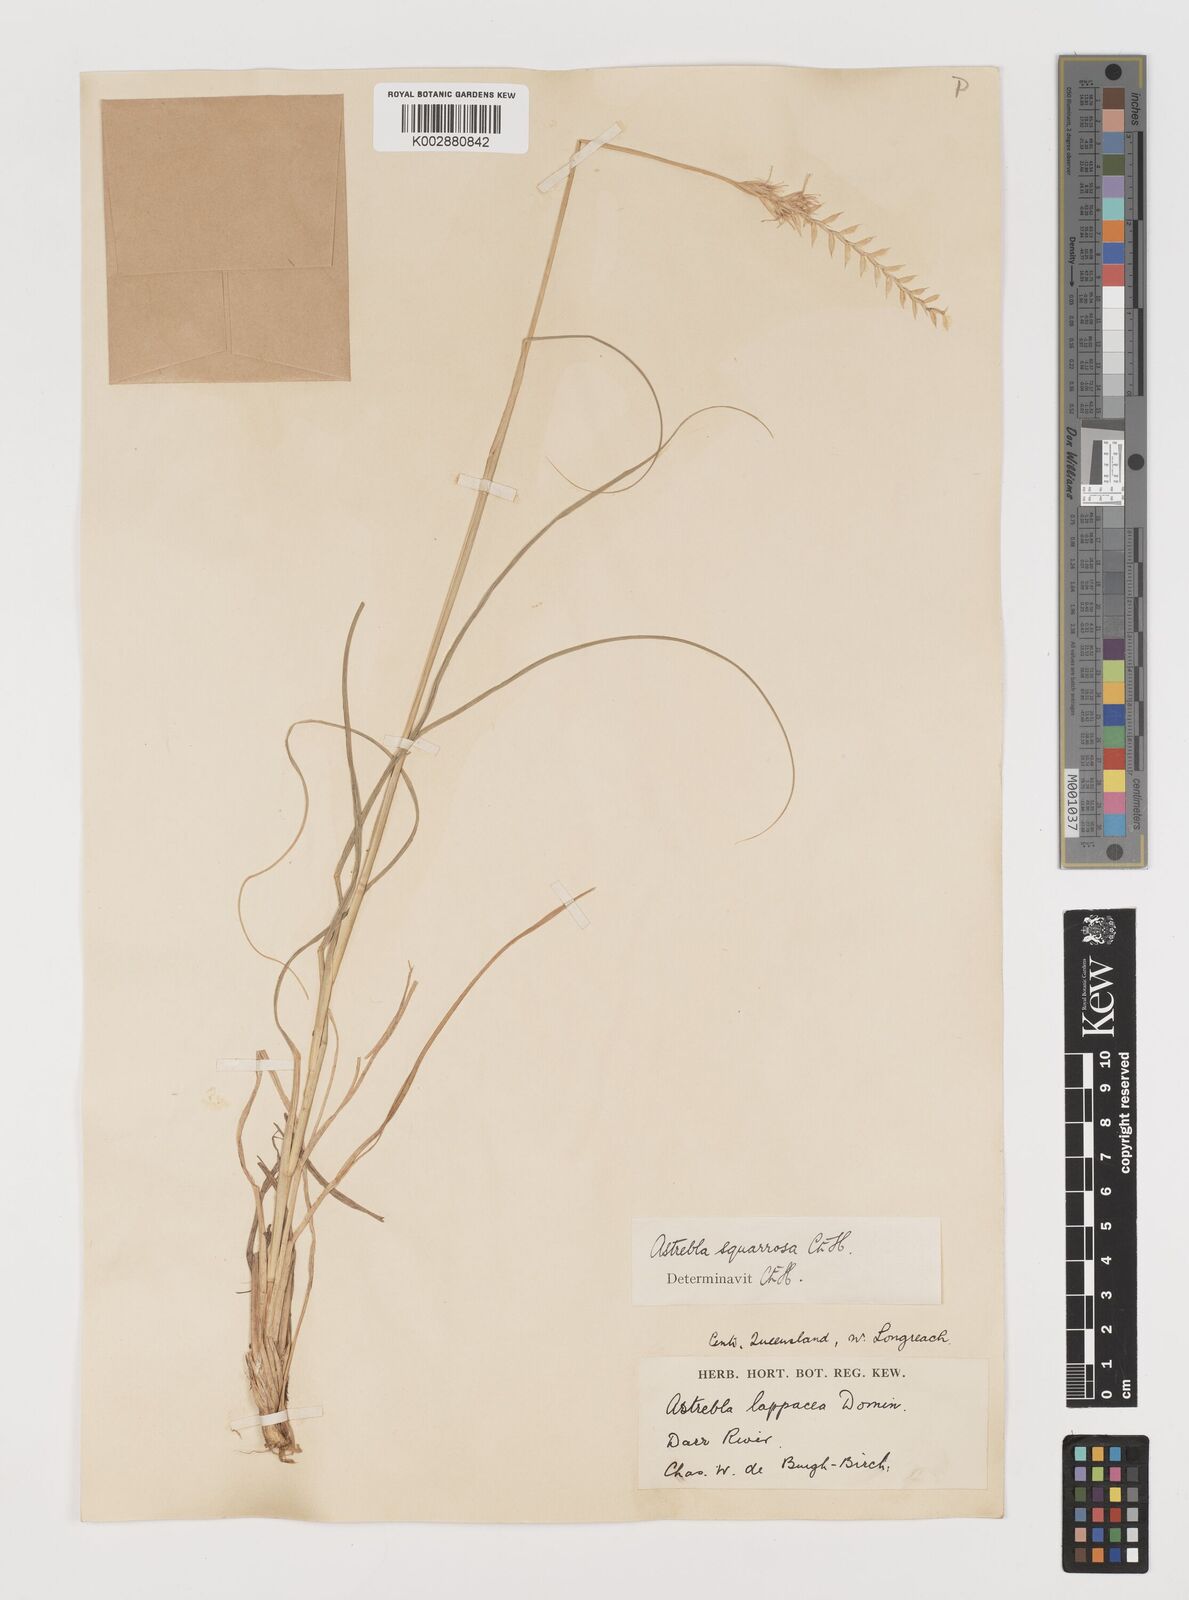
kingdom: Plantae
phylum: Tracheophyta
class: Liliopsida
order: Poales
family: Poaceae
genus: Astrebla
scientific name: Astrebla squarrosa
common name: Wheat-ear mitchell grass
